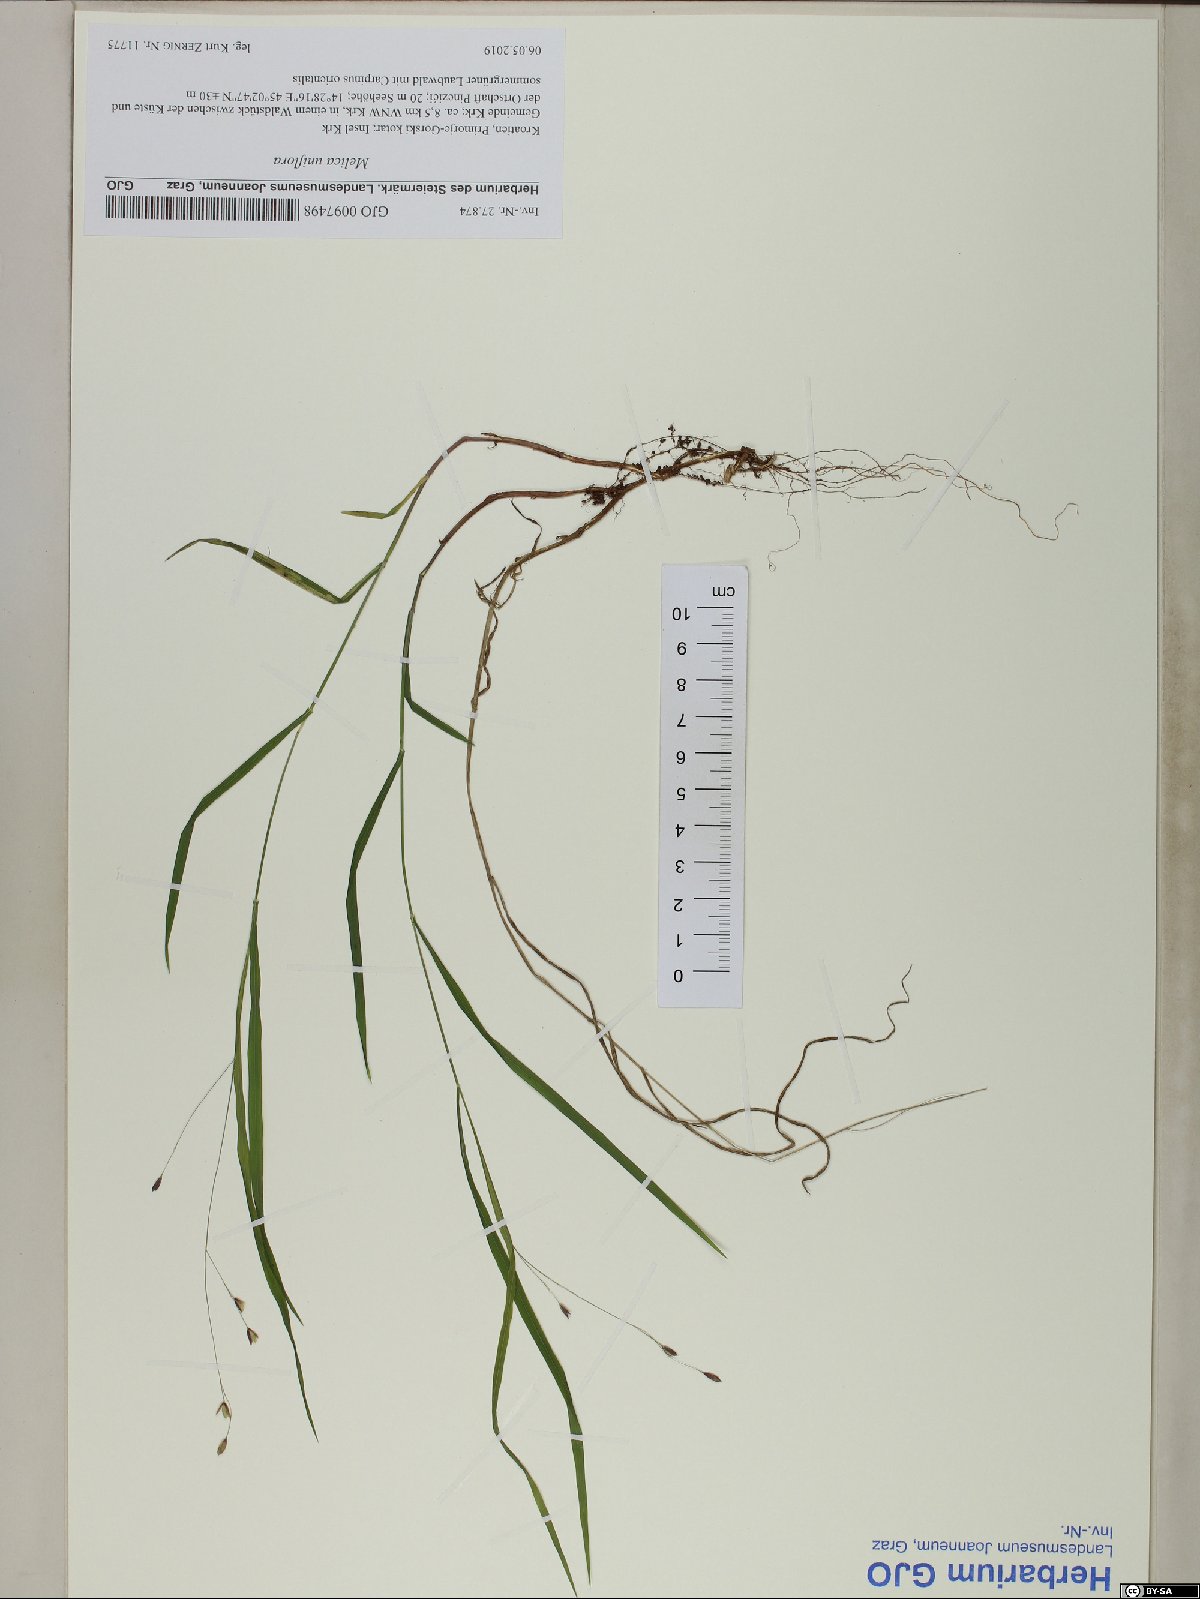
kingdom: Plantae
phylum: Tracheophyta
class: Liliopsida
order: Poales
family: Poaceae
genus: Melica
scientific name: Melica uniflora
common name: Wood melick
